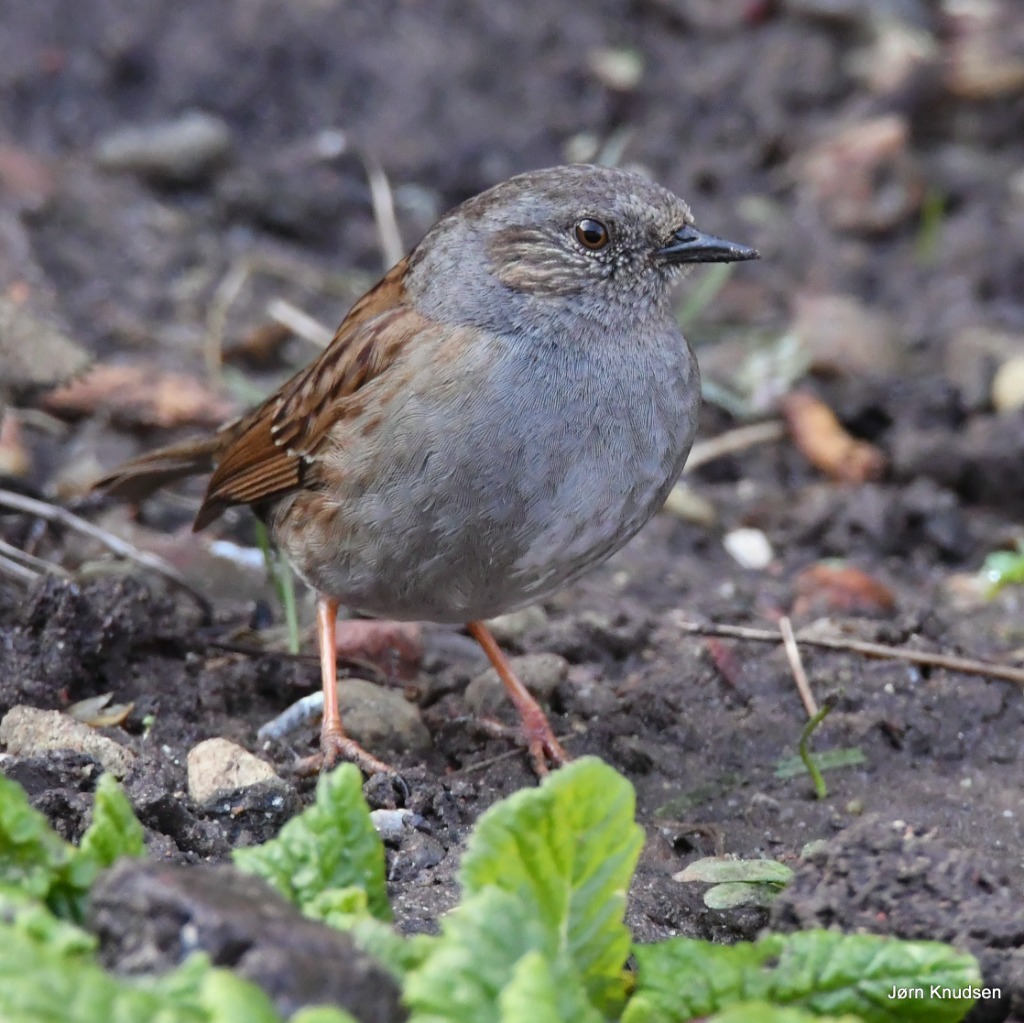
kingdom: Animalia
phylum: Chordata
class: Aves
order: Passeriformes
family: Prunellidae
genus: Prunella
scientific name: Prunella modularis
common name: Jernspurv
